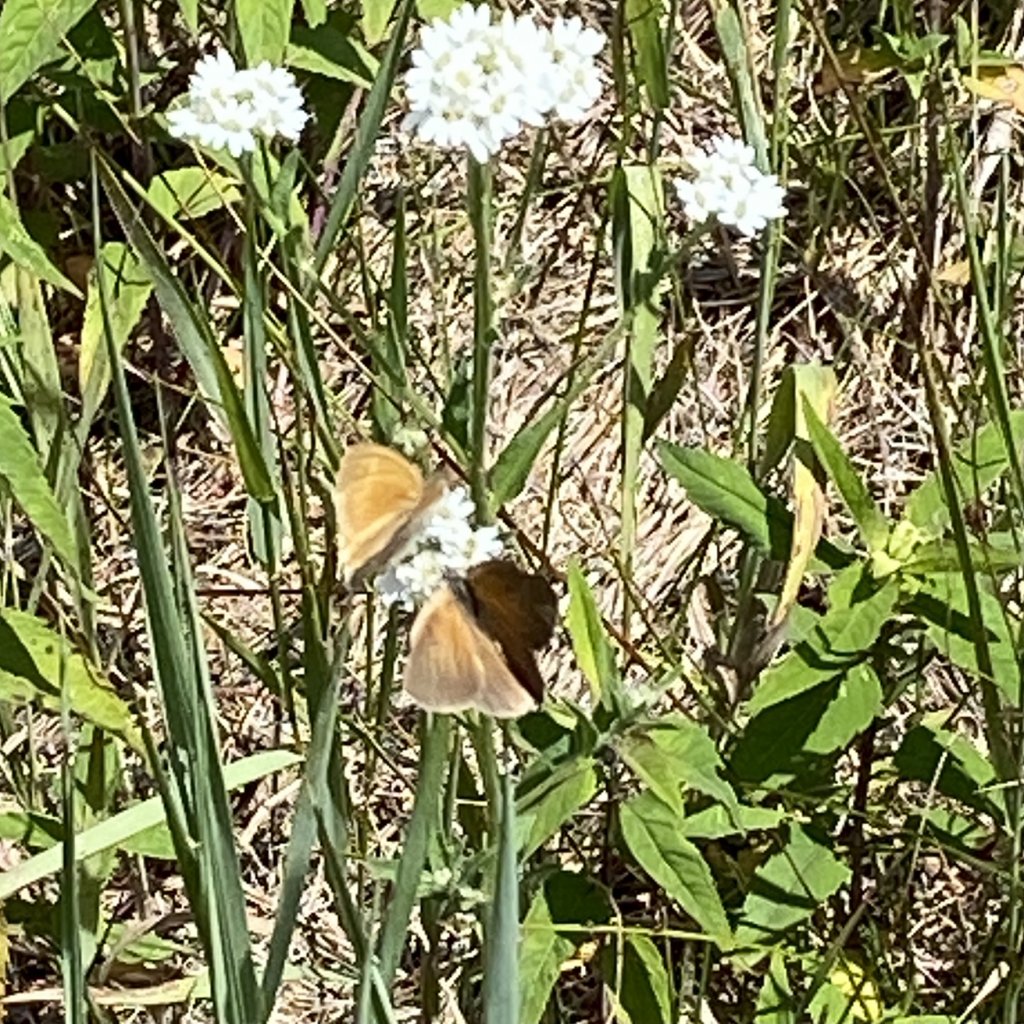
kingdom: Animalia
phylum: Arthropoda
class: Insecta
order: Lepidoptera
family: Nymphalidae
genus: Coenonympha
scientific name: Coenonympha tullia
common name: Large Heath
